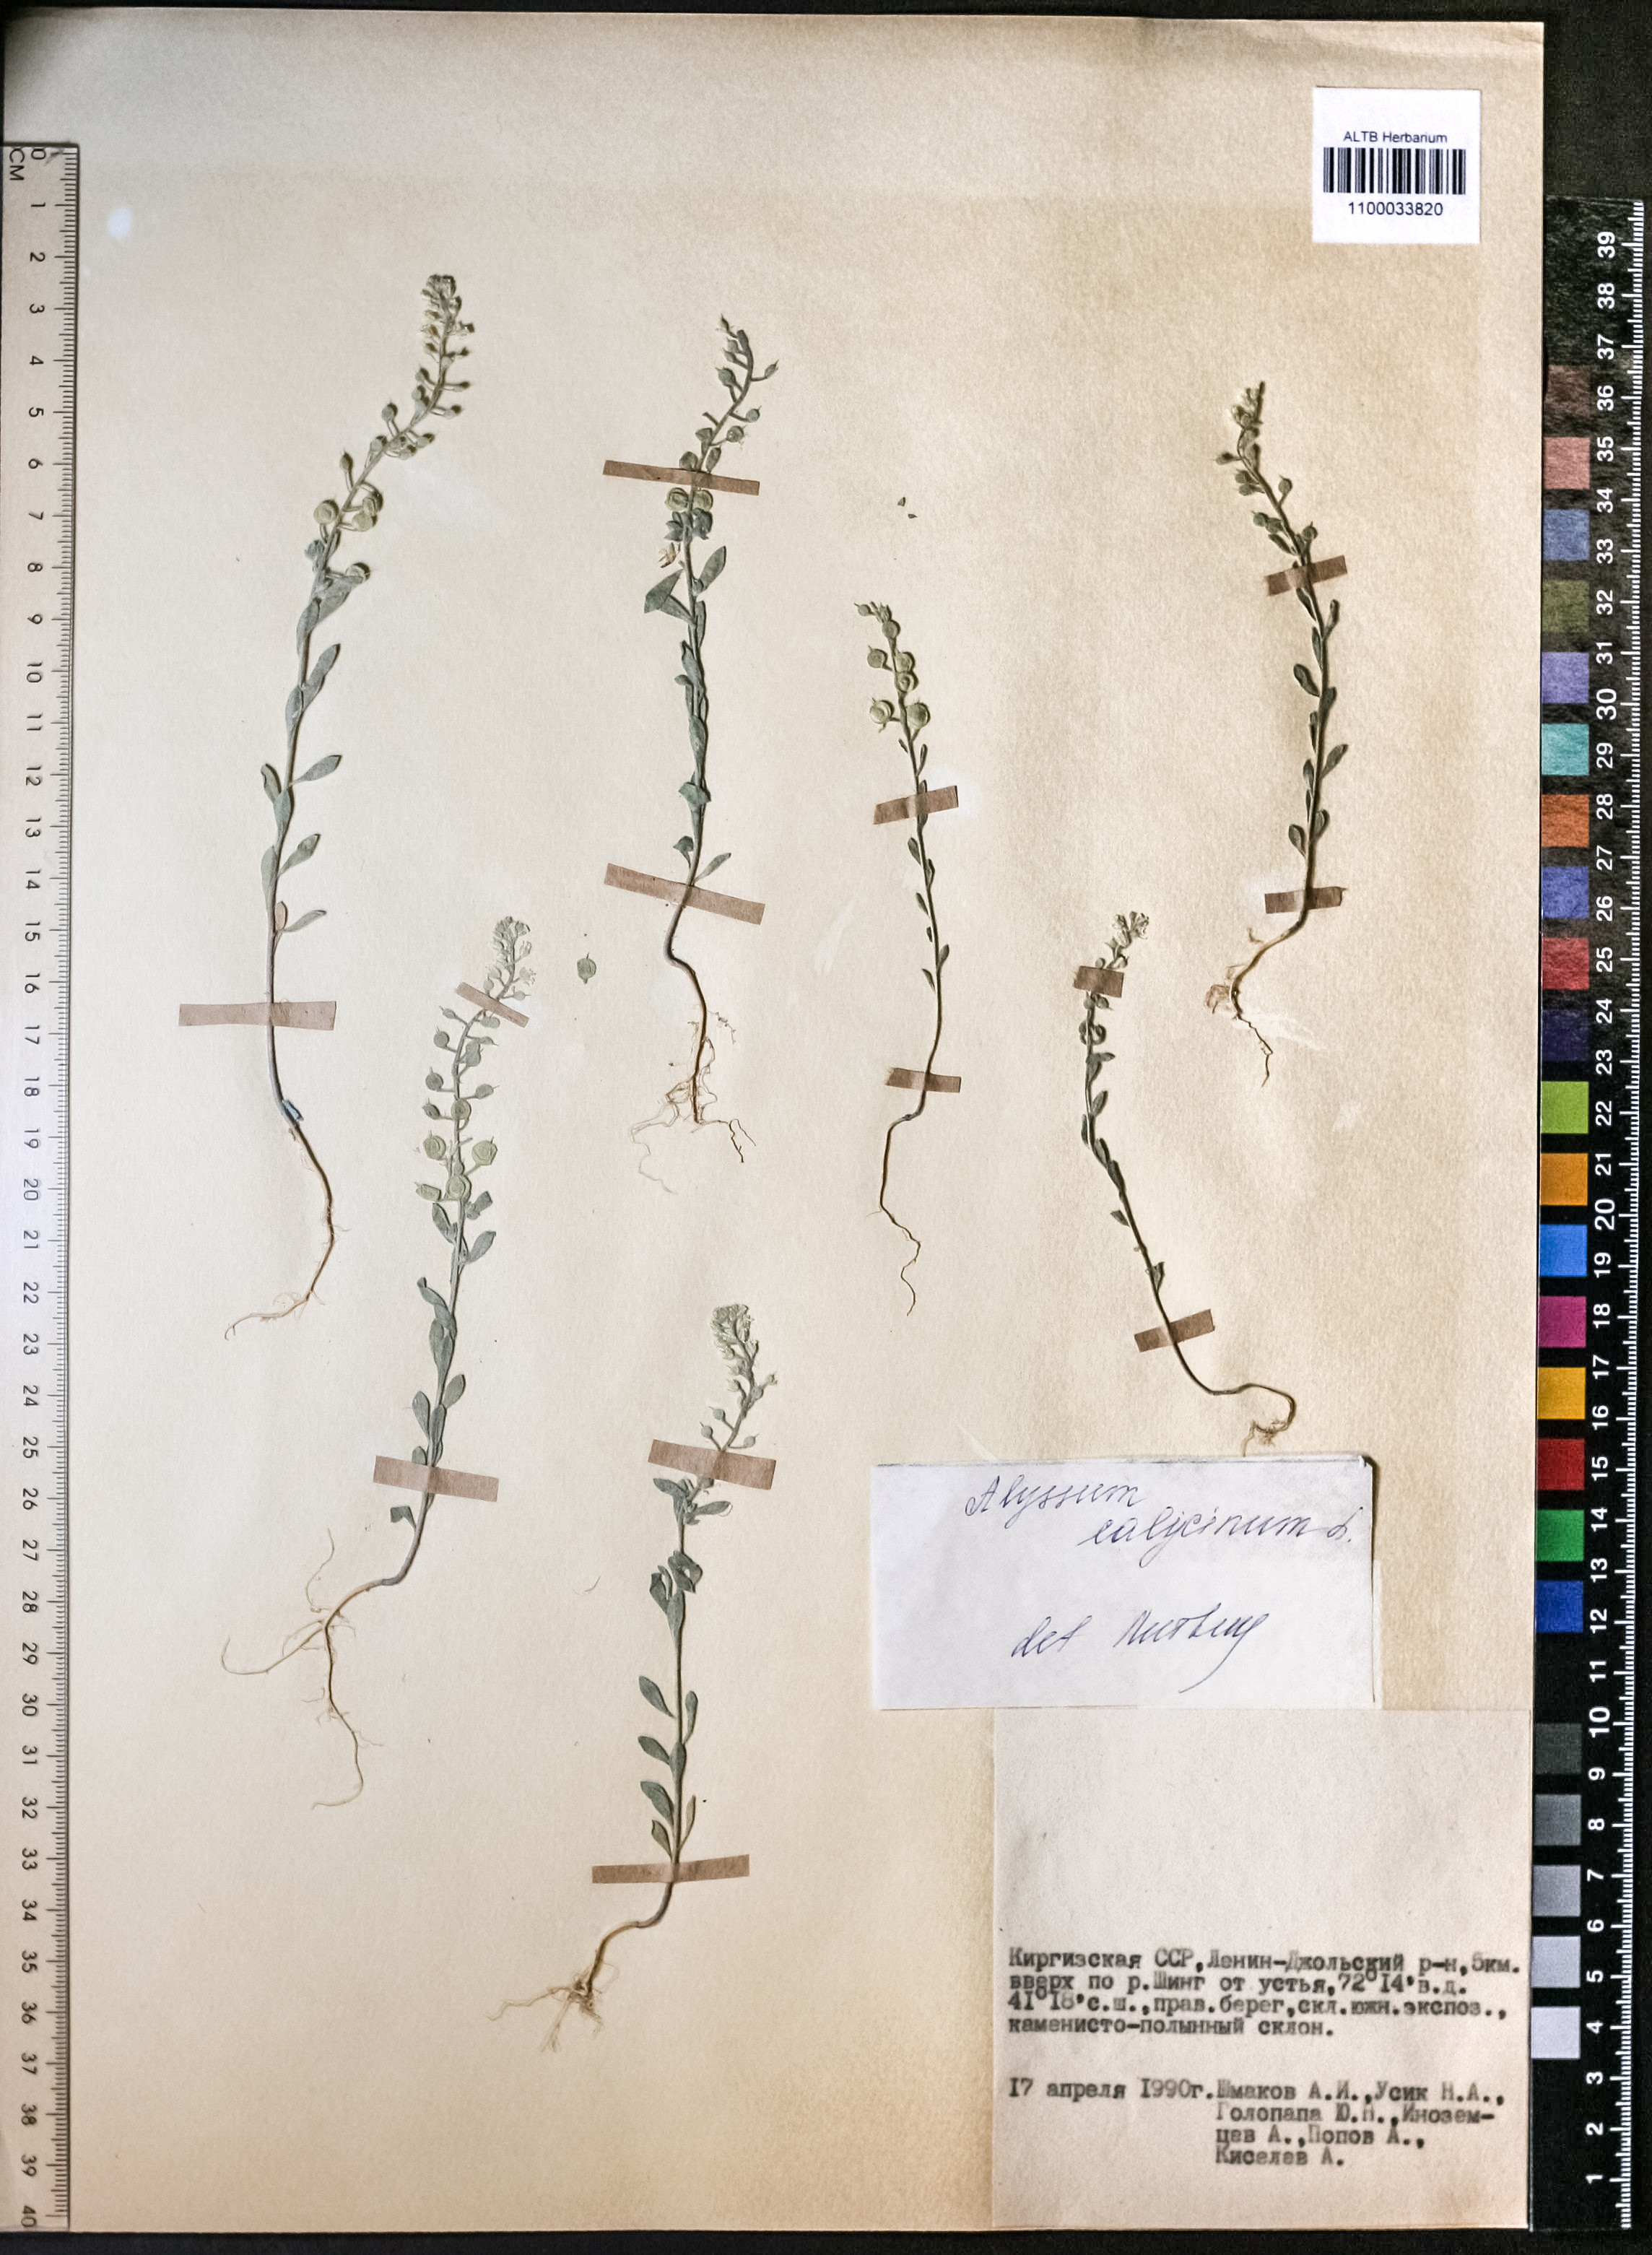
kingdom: Plantae
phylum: Tracheophyta
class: Magnoliopsida
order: Brassicales
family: Brassicaceae
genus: Alyssum
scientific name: Alyssum alyssoides
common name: Small alison
